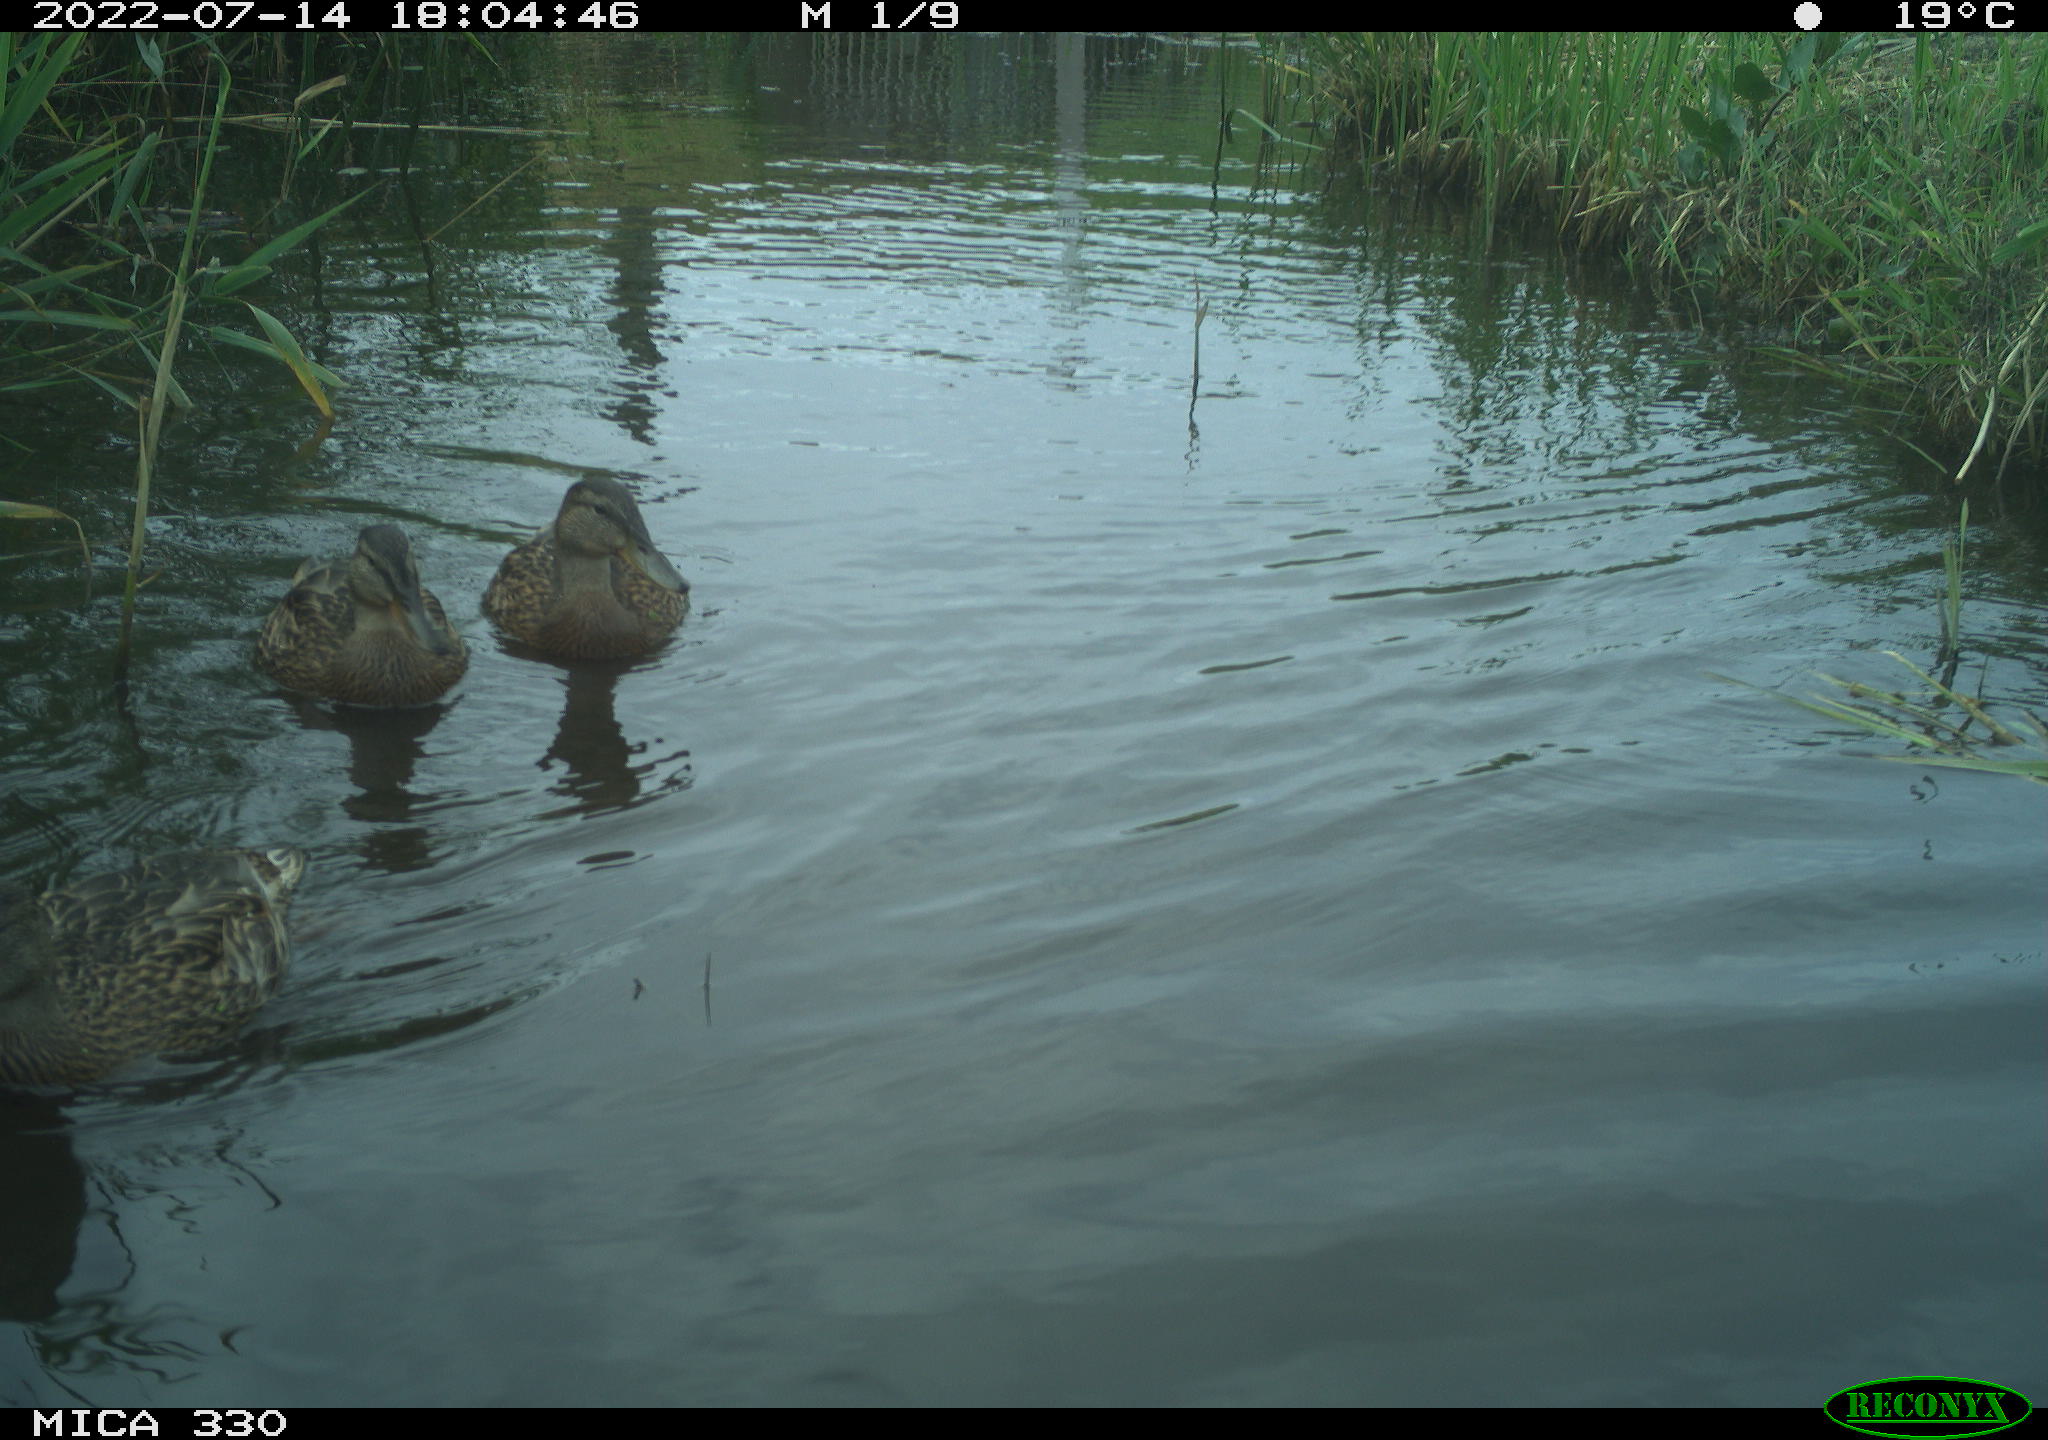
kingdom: Animalia
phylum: Chordata
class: Aves
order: Anseriformes
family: Anatidae
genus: Mareca
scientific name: Mareca strepera
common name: Gadwall
